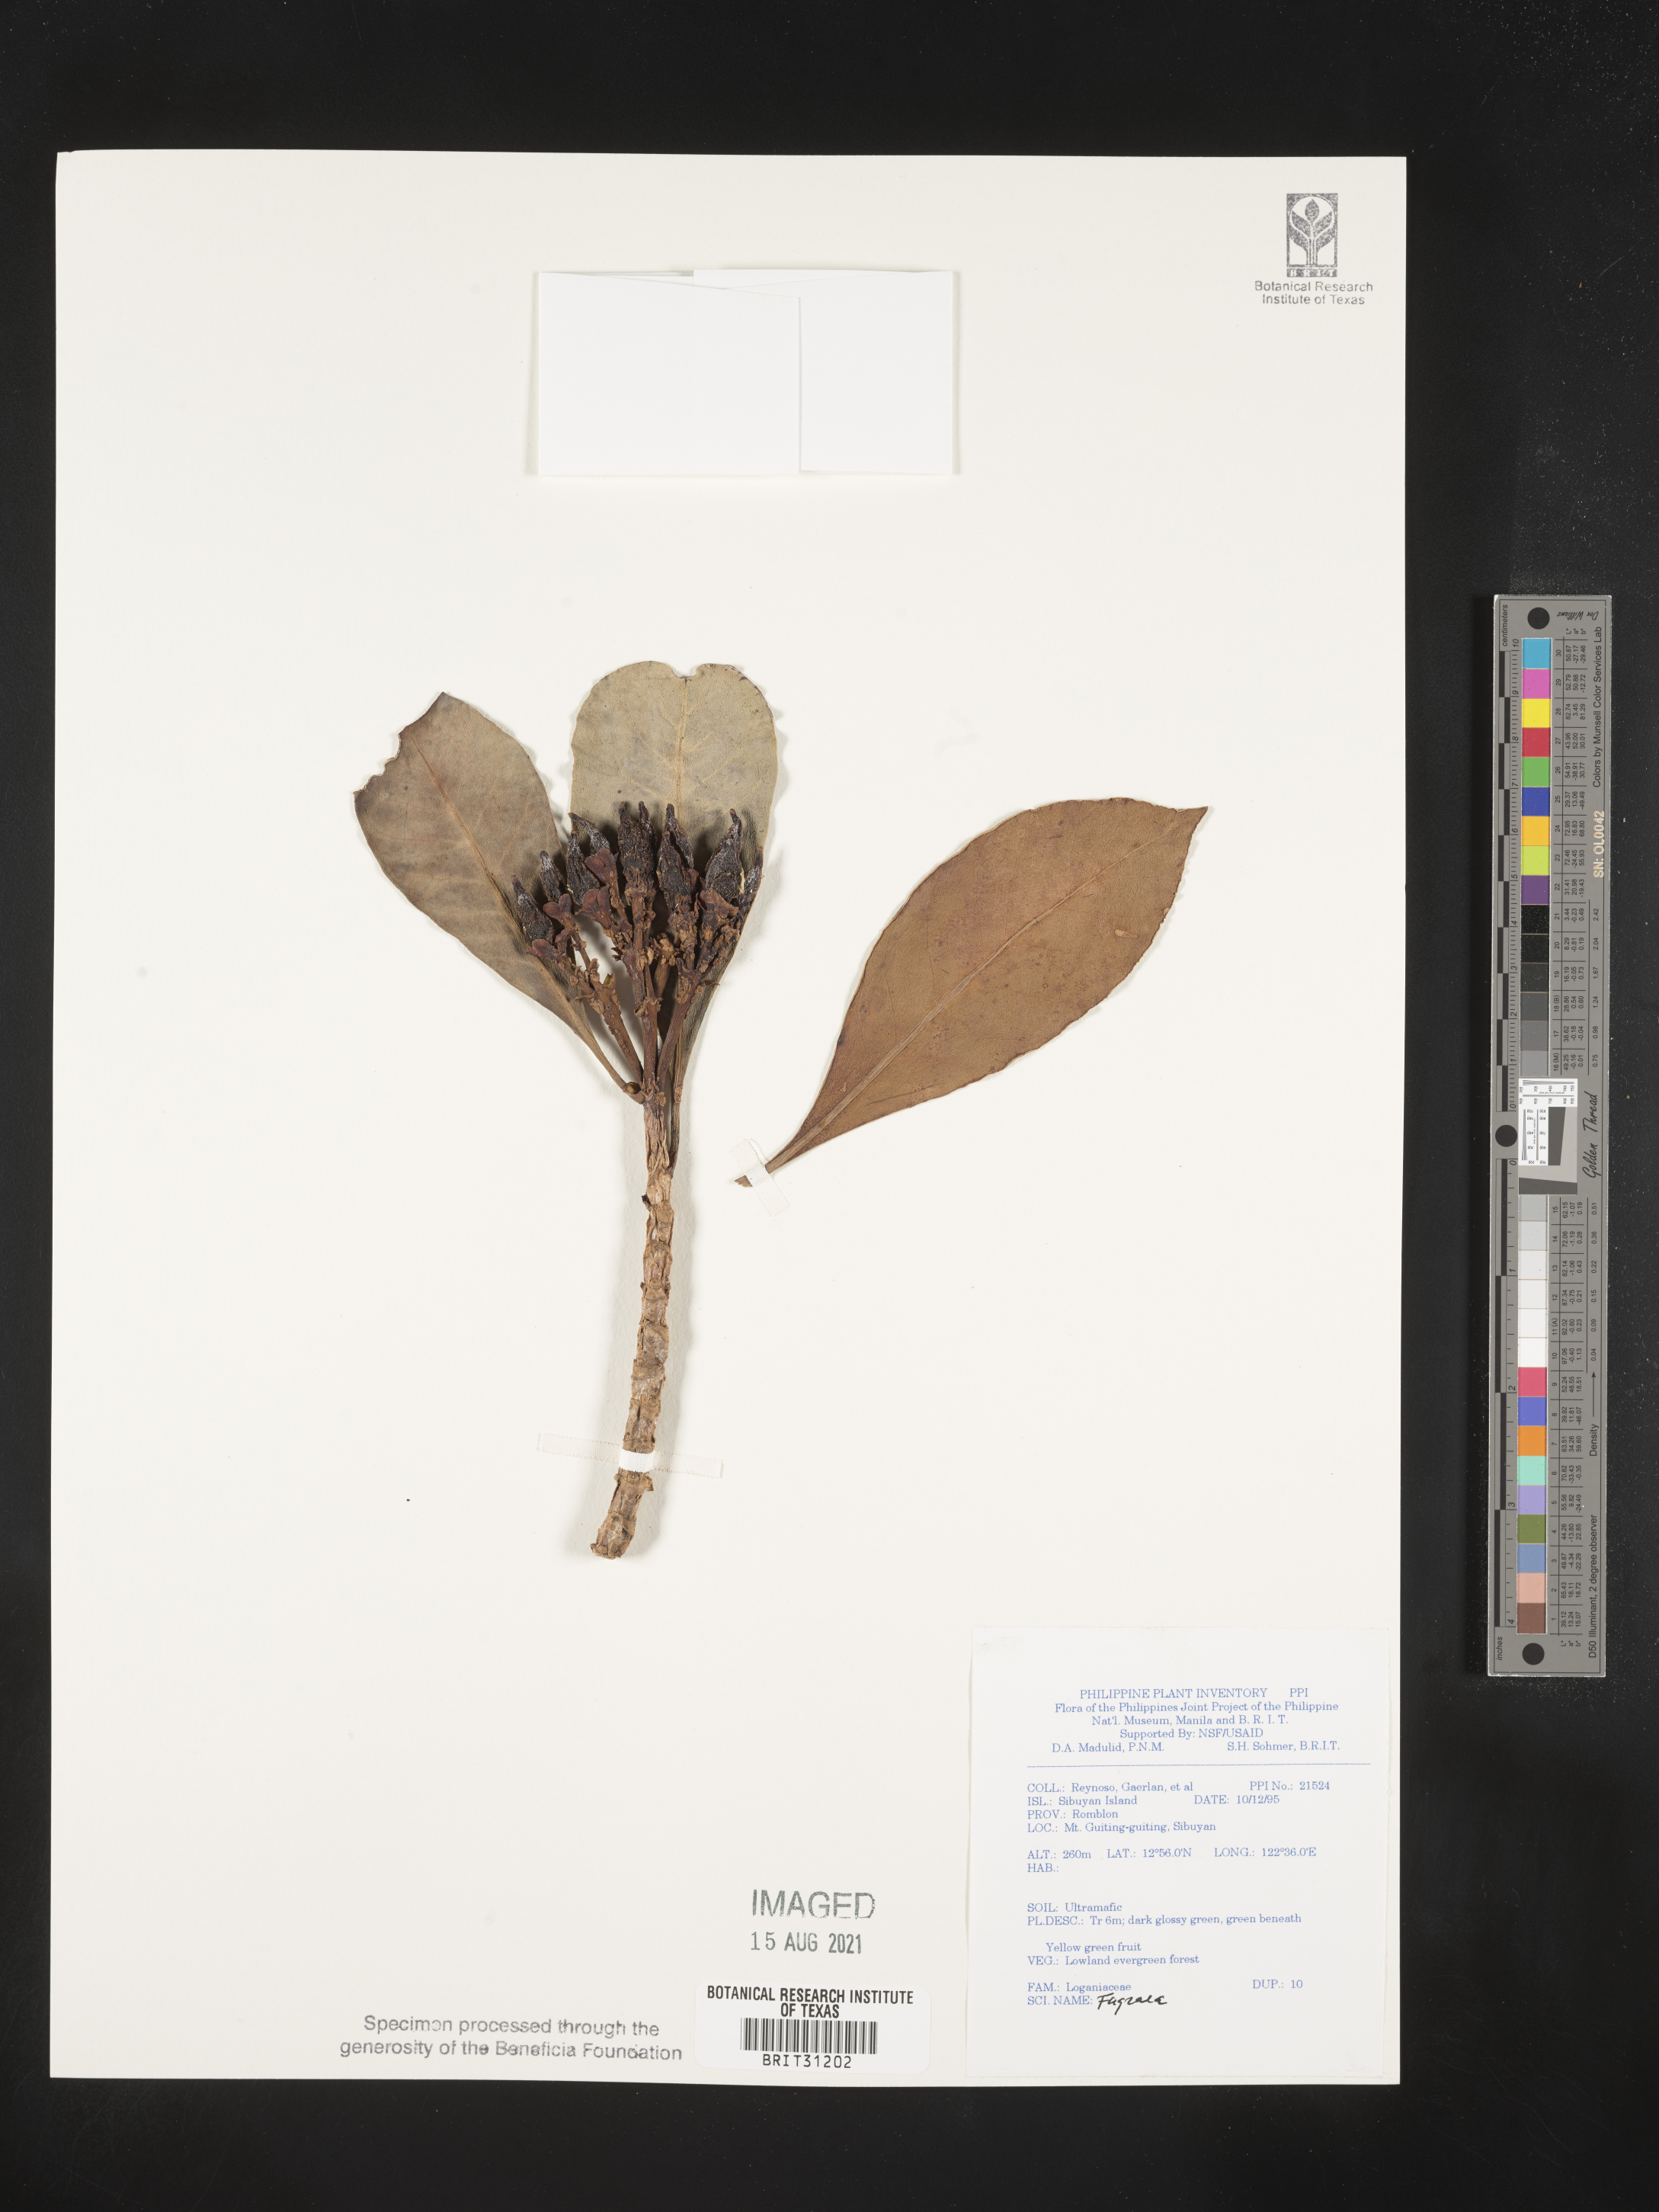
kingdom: Plantae
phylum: Tracheophyta
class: Magnoliopsida
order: Gentianales
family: Gentianaceae
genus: Fagraea
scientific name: Fagraea
